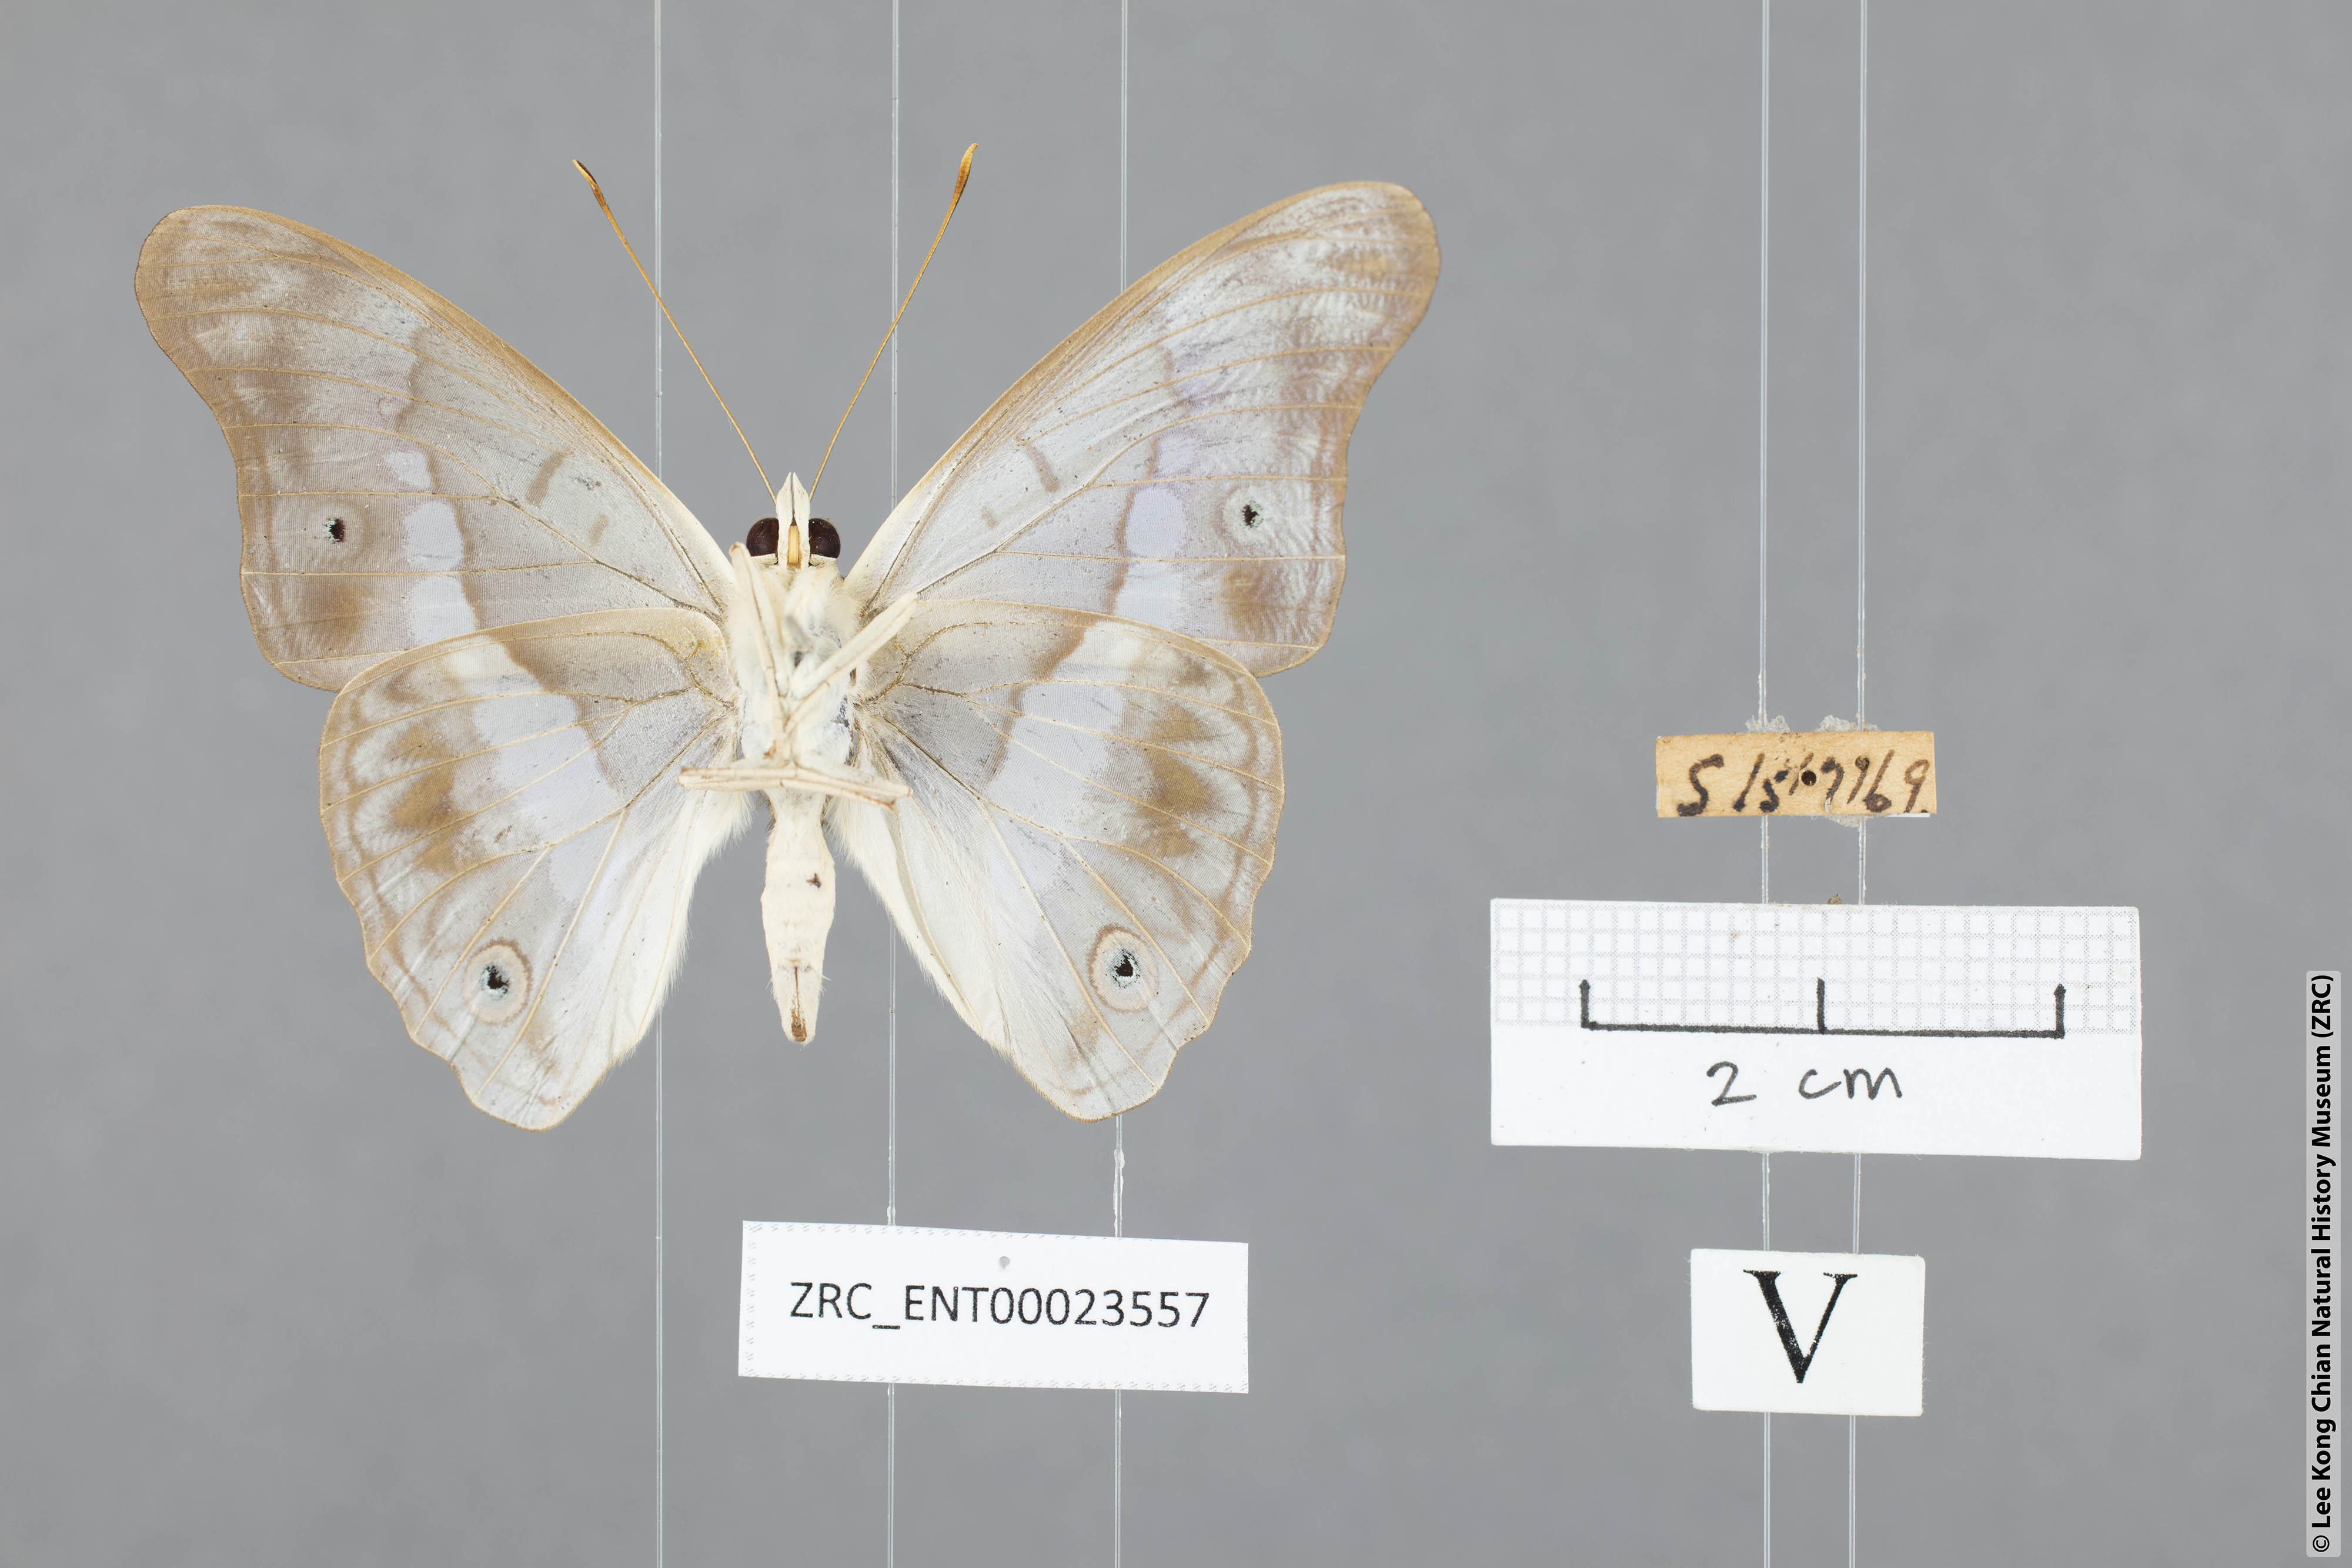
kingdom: Animalia
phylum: Arthropoda
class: Insecta
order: Lepidoptera
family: Nymphalidae
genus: Eulaceura
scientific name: Eulaceura osteria
